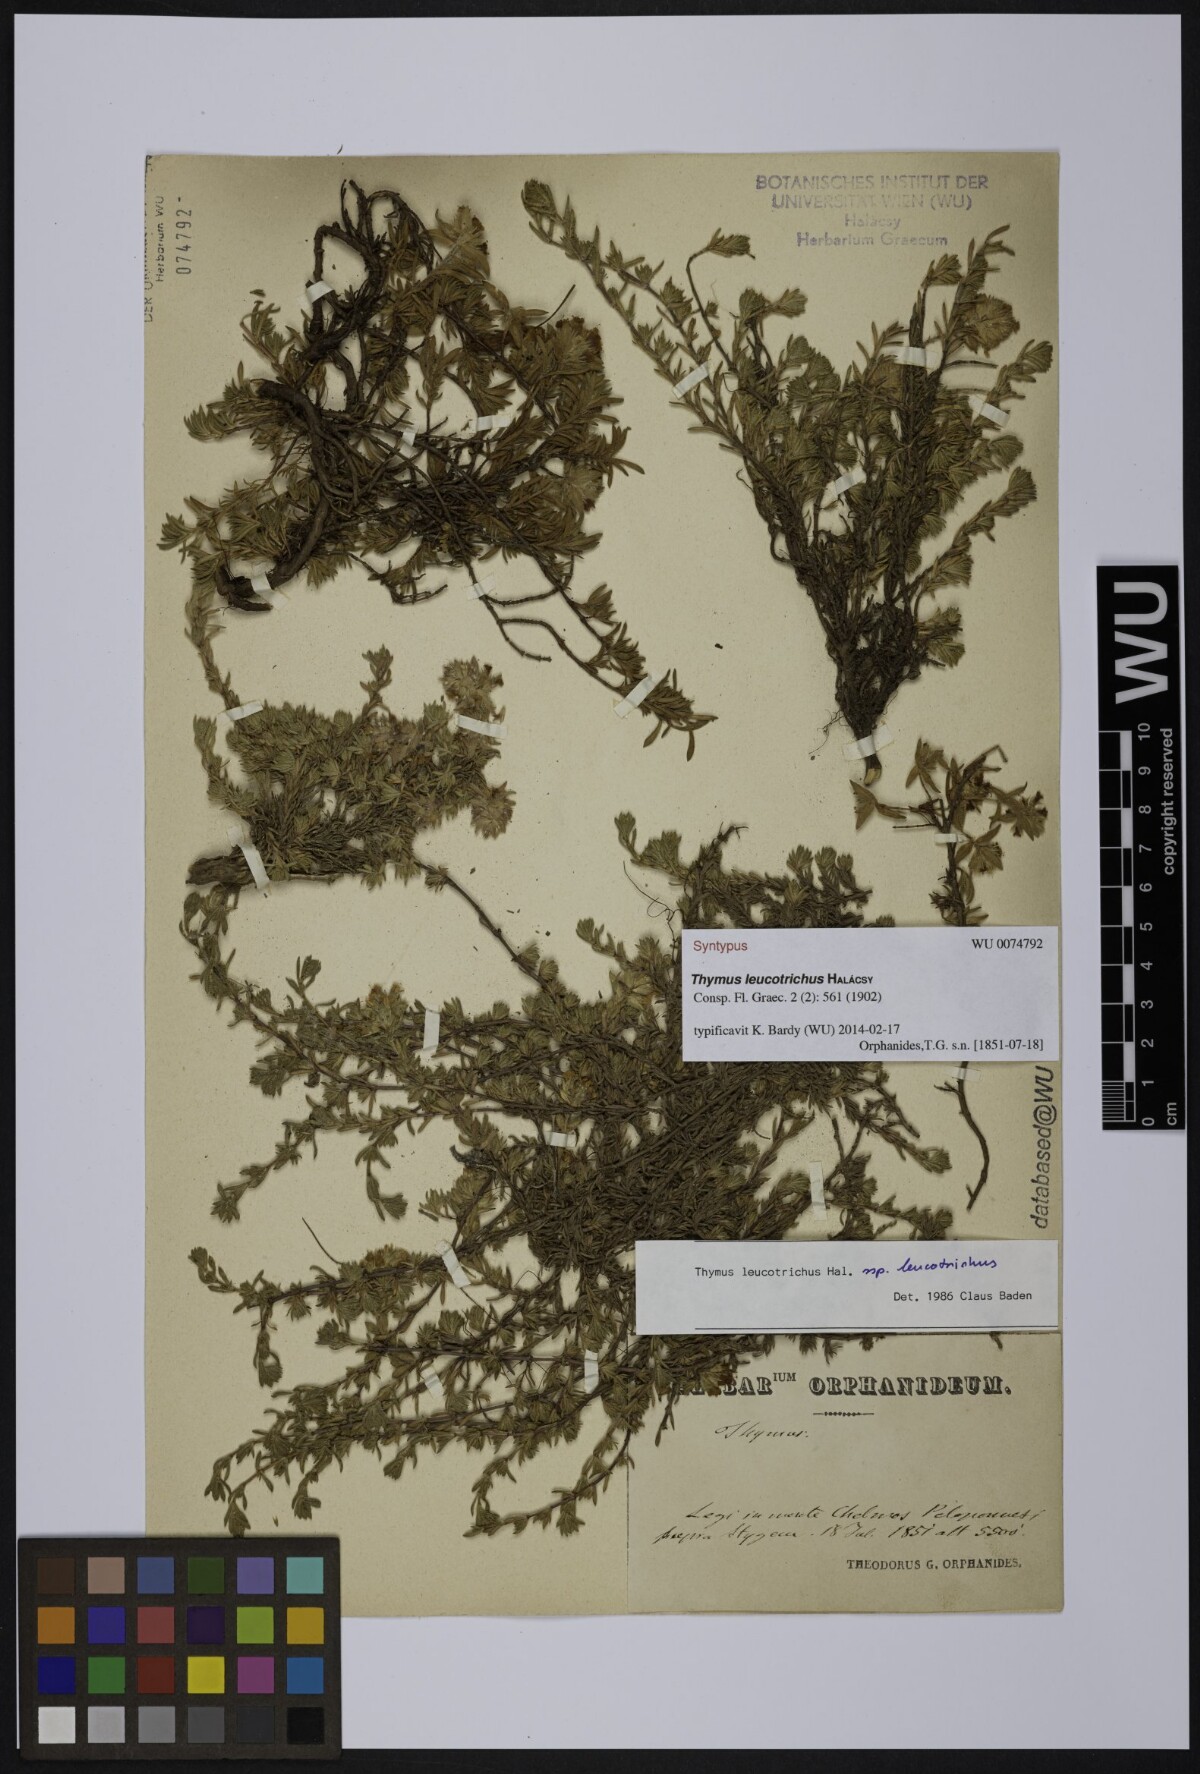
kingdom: Plantae
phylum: Tracheophyta
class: Magnoliopsida
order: Lamiales
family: Lamiaceae
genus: Thymus
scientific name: Thymus leucotrichus
